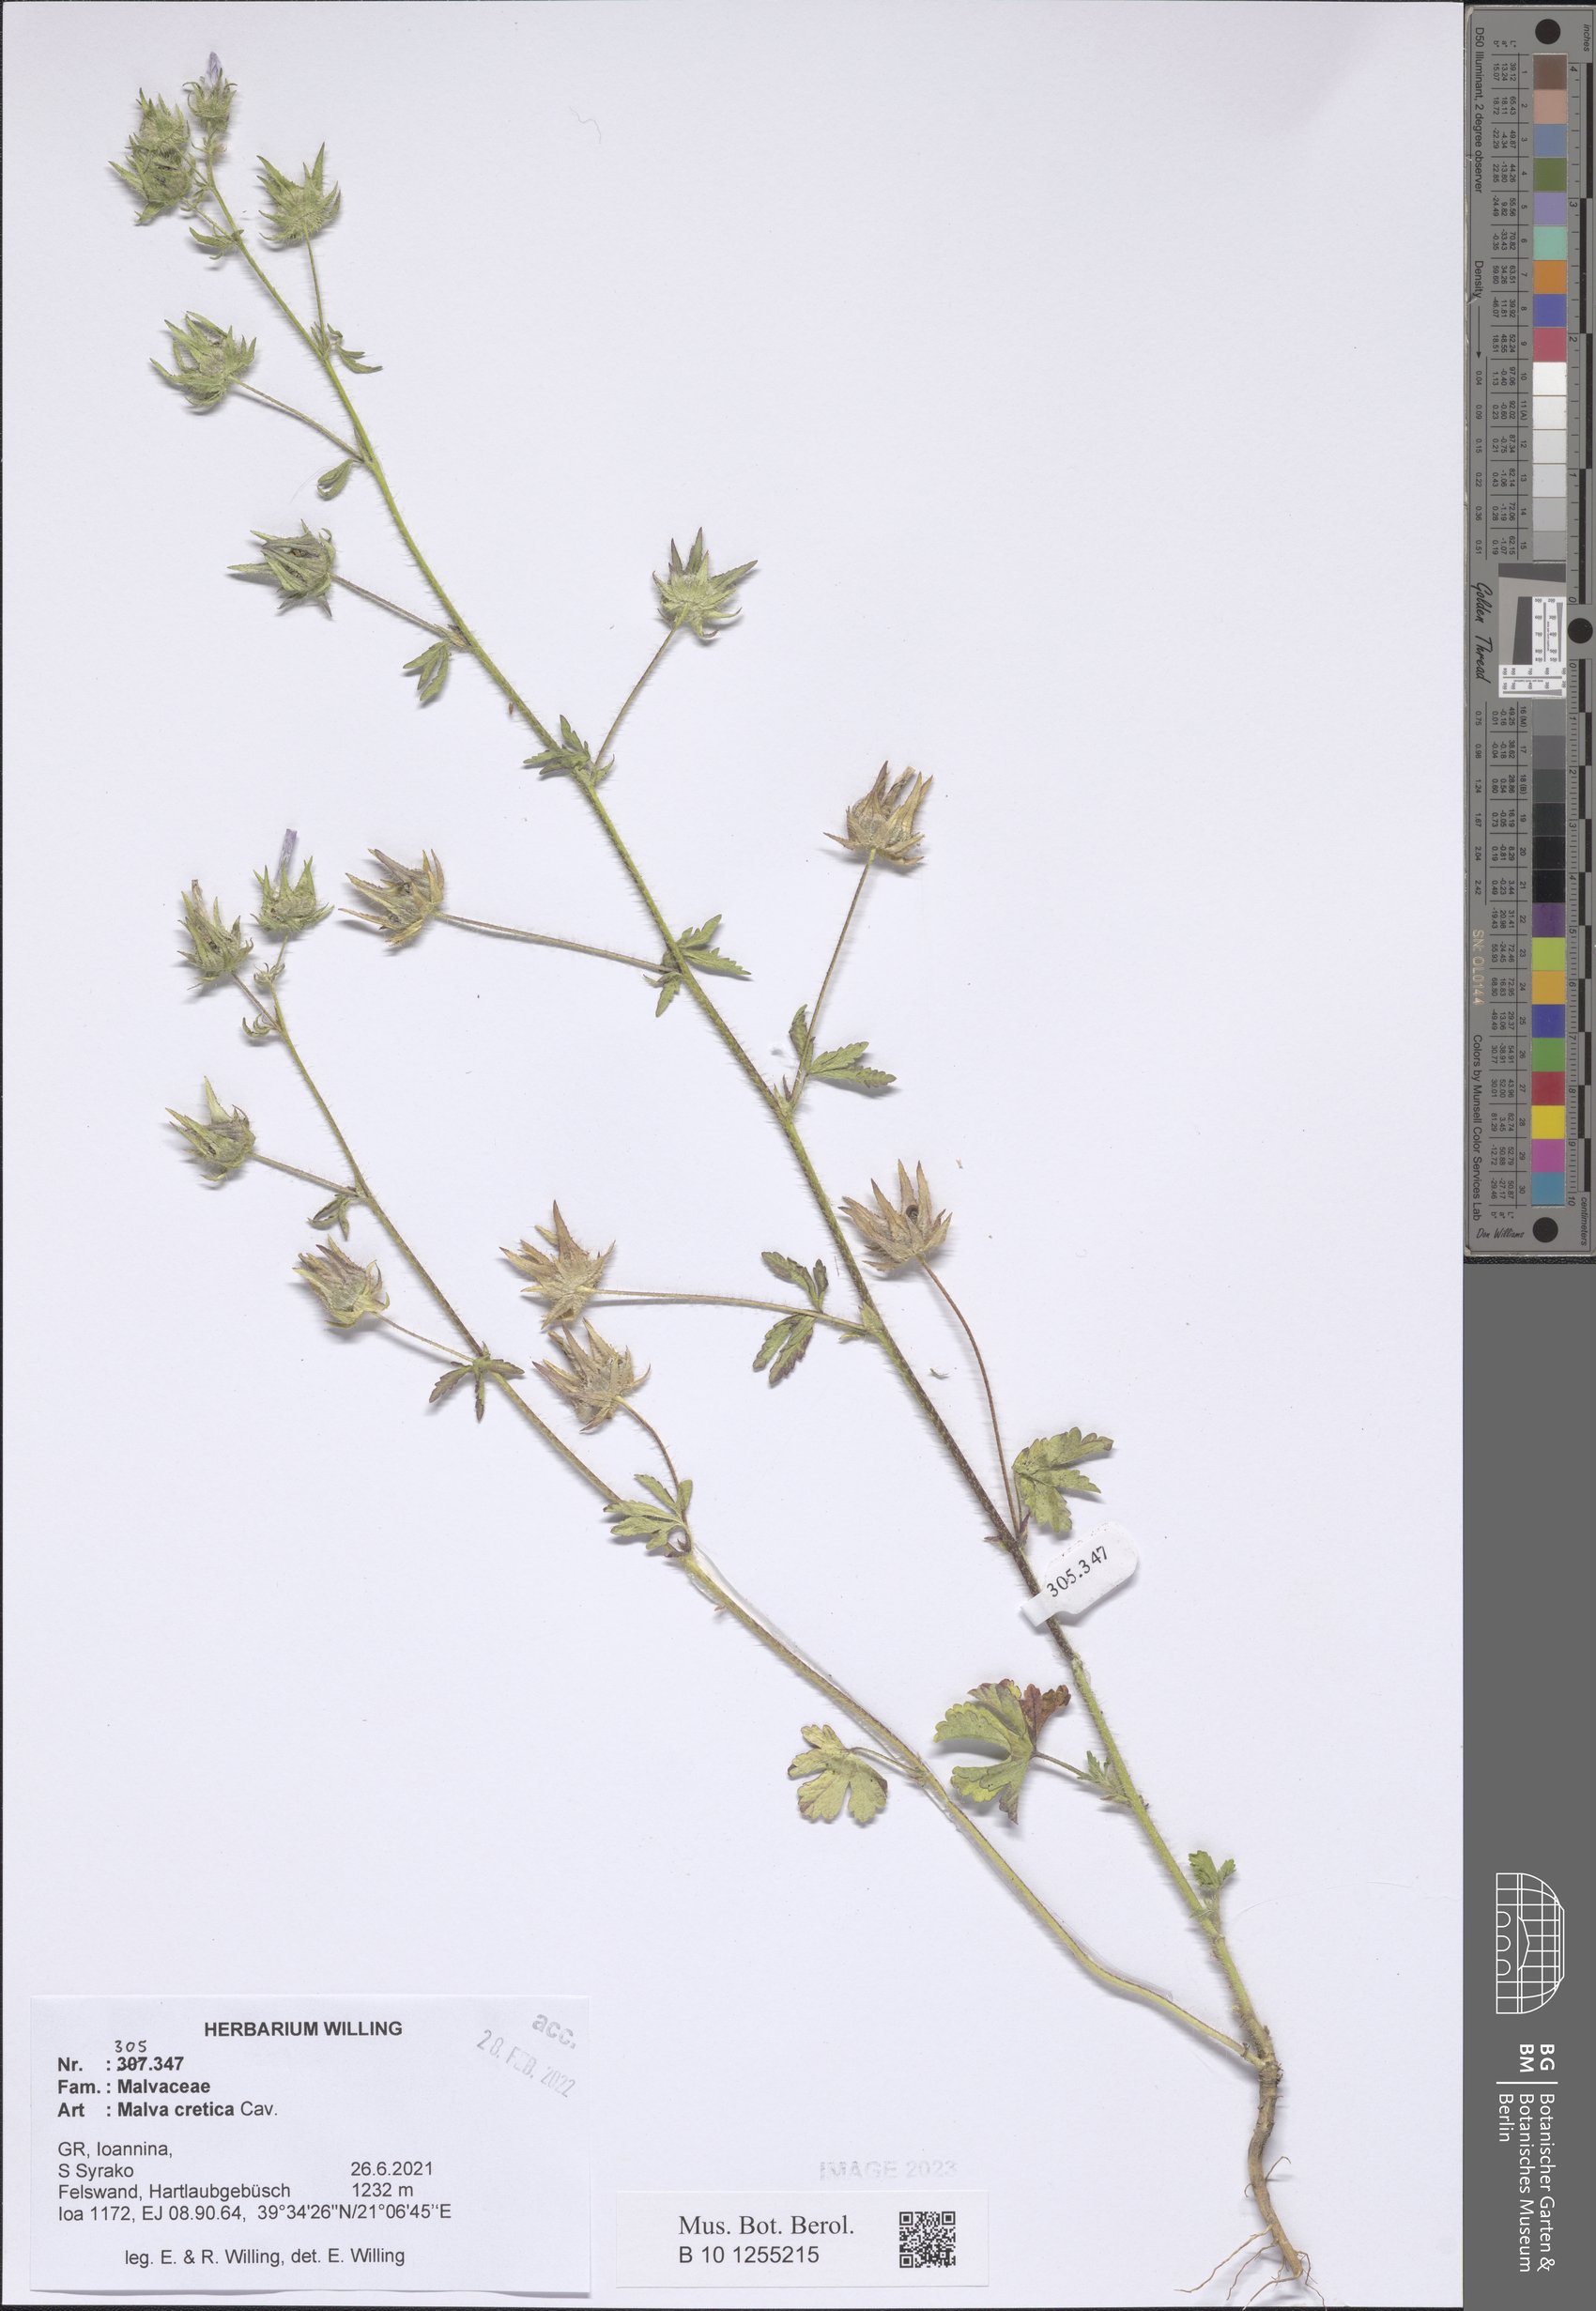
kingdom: Plantae
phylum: Tracheophyta
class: Magnoliopsida
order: Malvales
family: Malvaceae
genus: Malva
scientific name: Malva cretica
